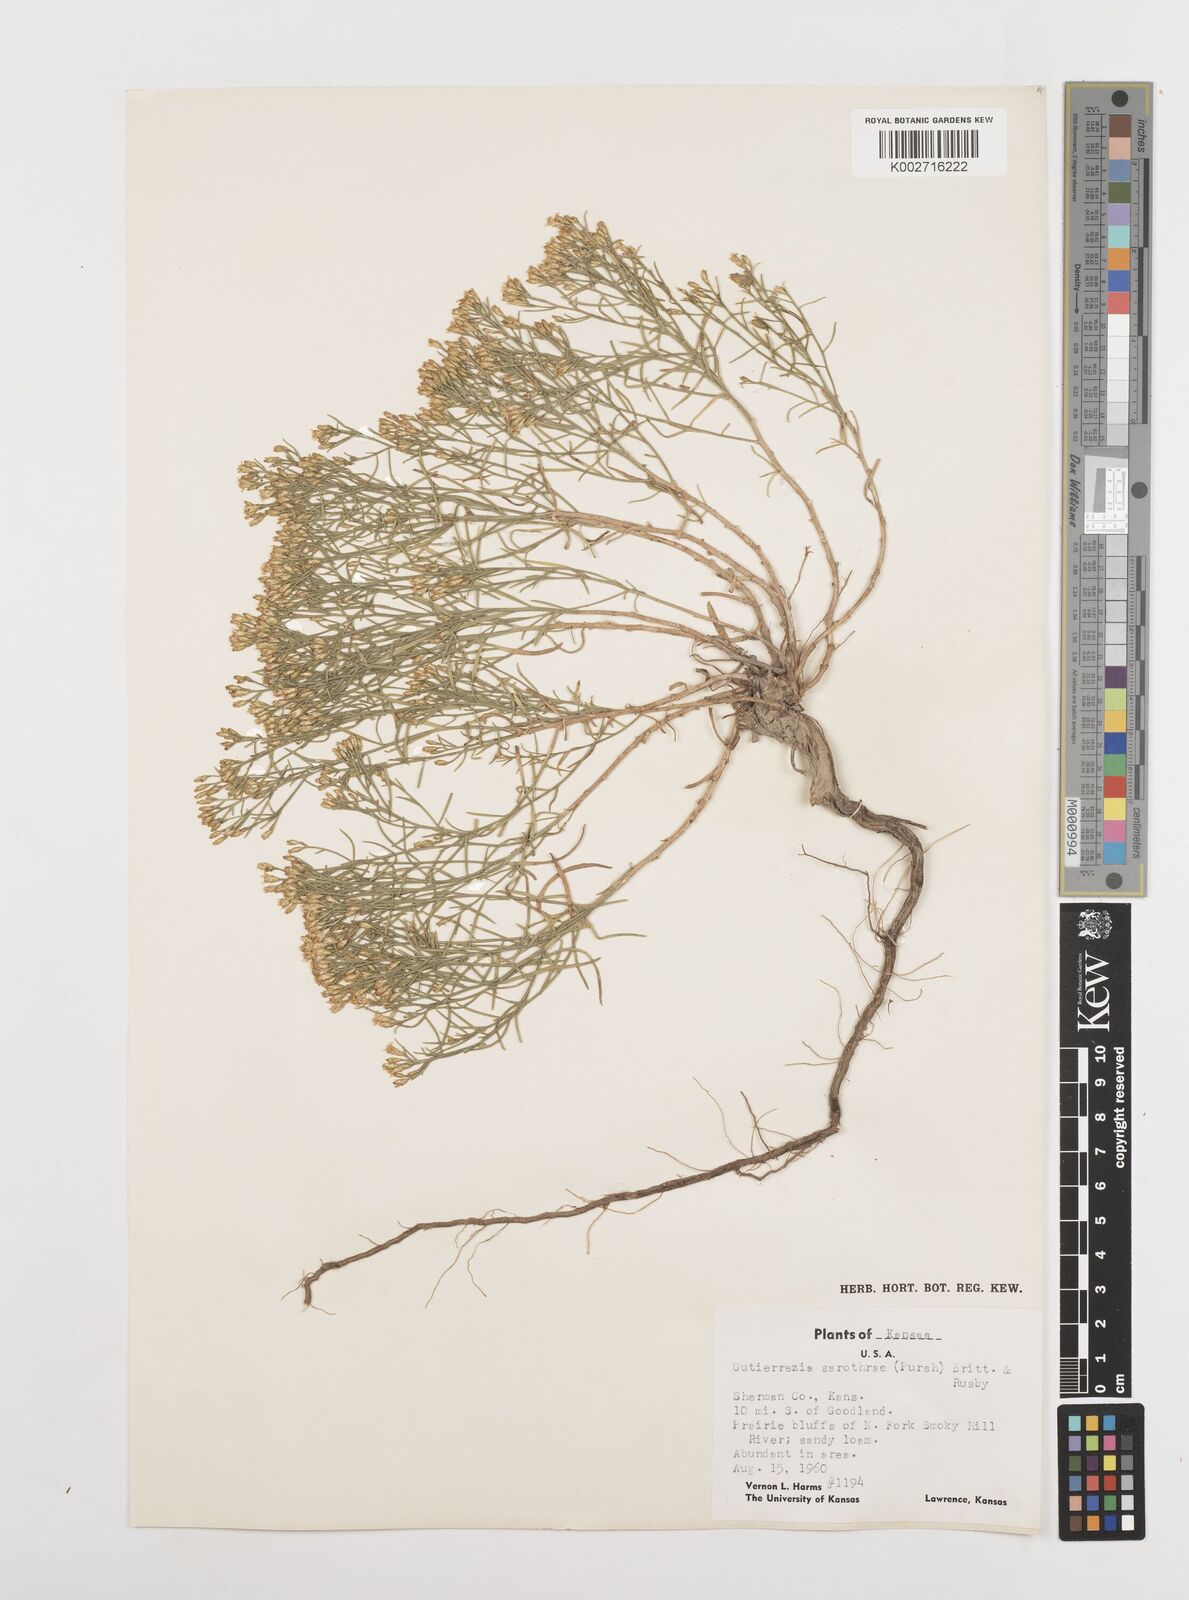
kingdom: Plantae
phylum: Tracheophyta
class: Magnoliopsida
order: Asterales
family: Asteraceae
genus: Gutierrezia
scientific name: Gutierrezia sarothrae
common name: Broom snakeweed
